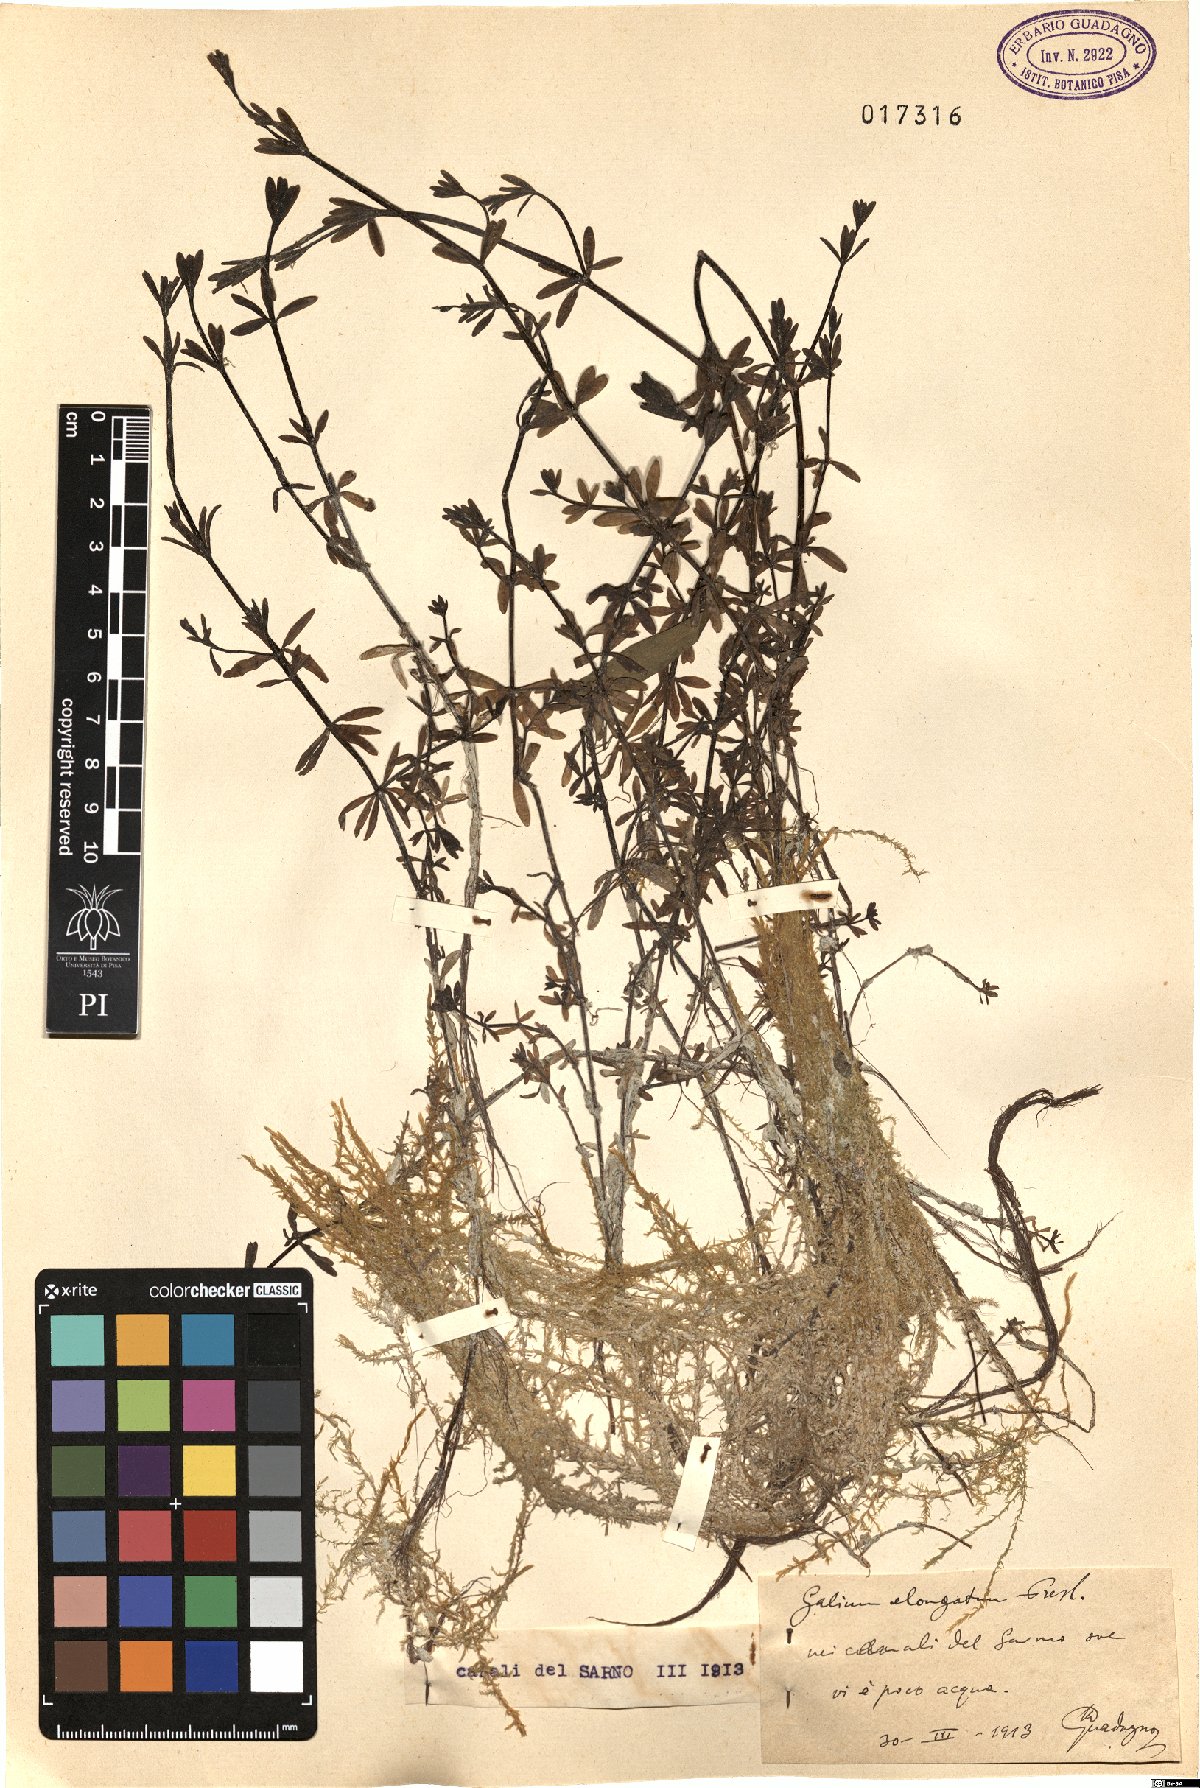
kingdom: Plantae
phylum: Tracheophyta
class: Magnoliopsida
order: Gentianales
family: Rubiaceae
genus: Galium
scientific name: Galium elongatum
